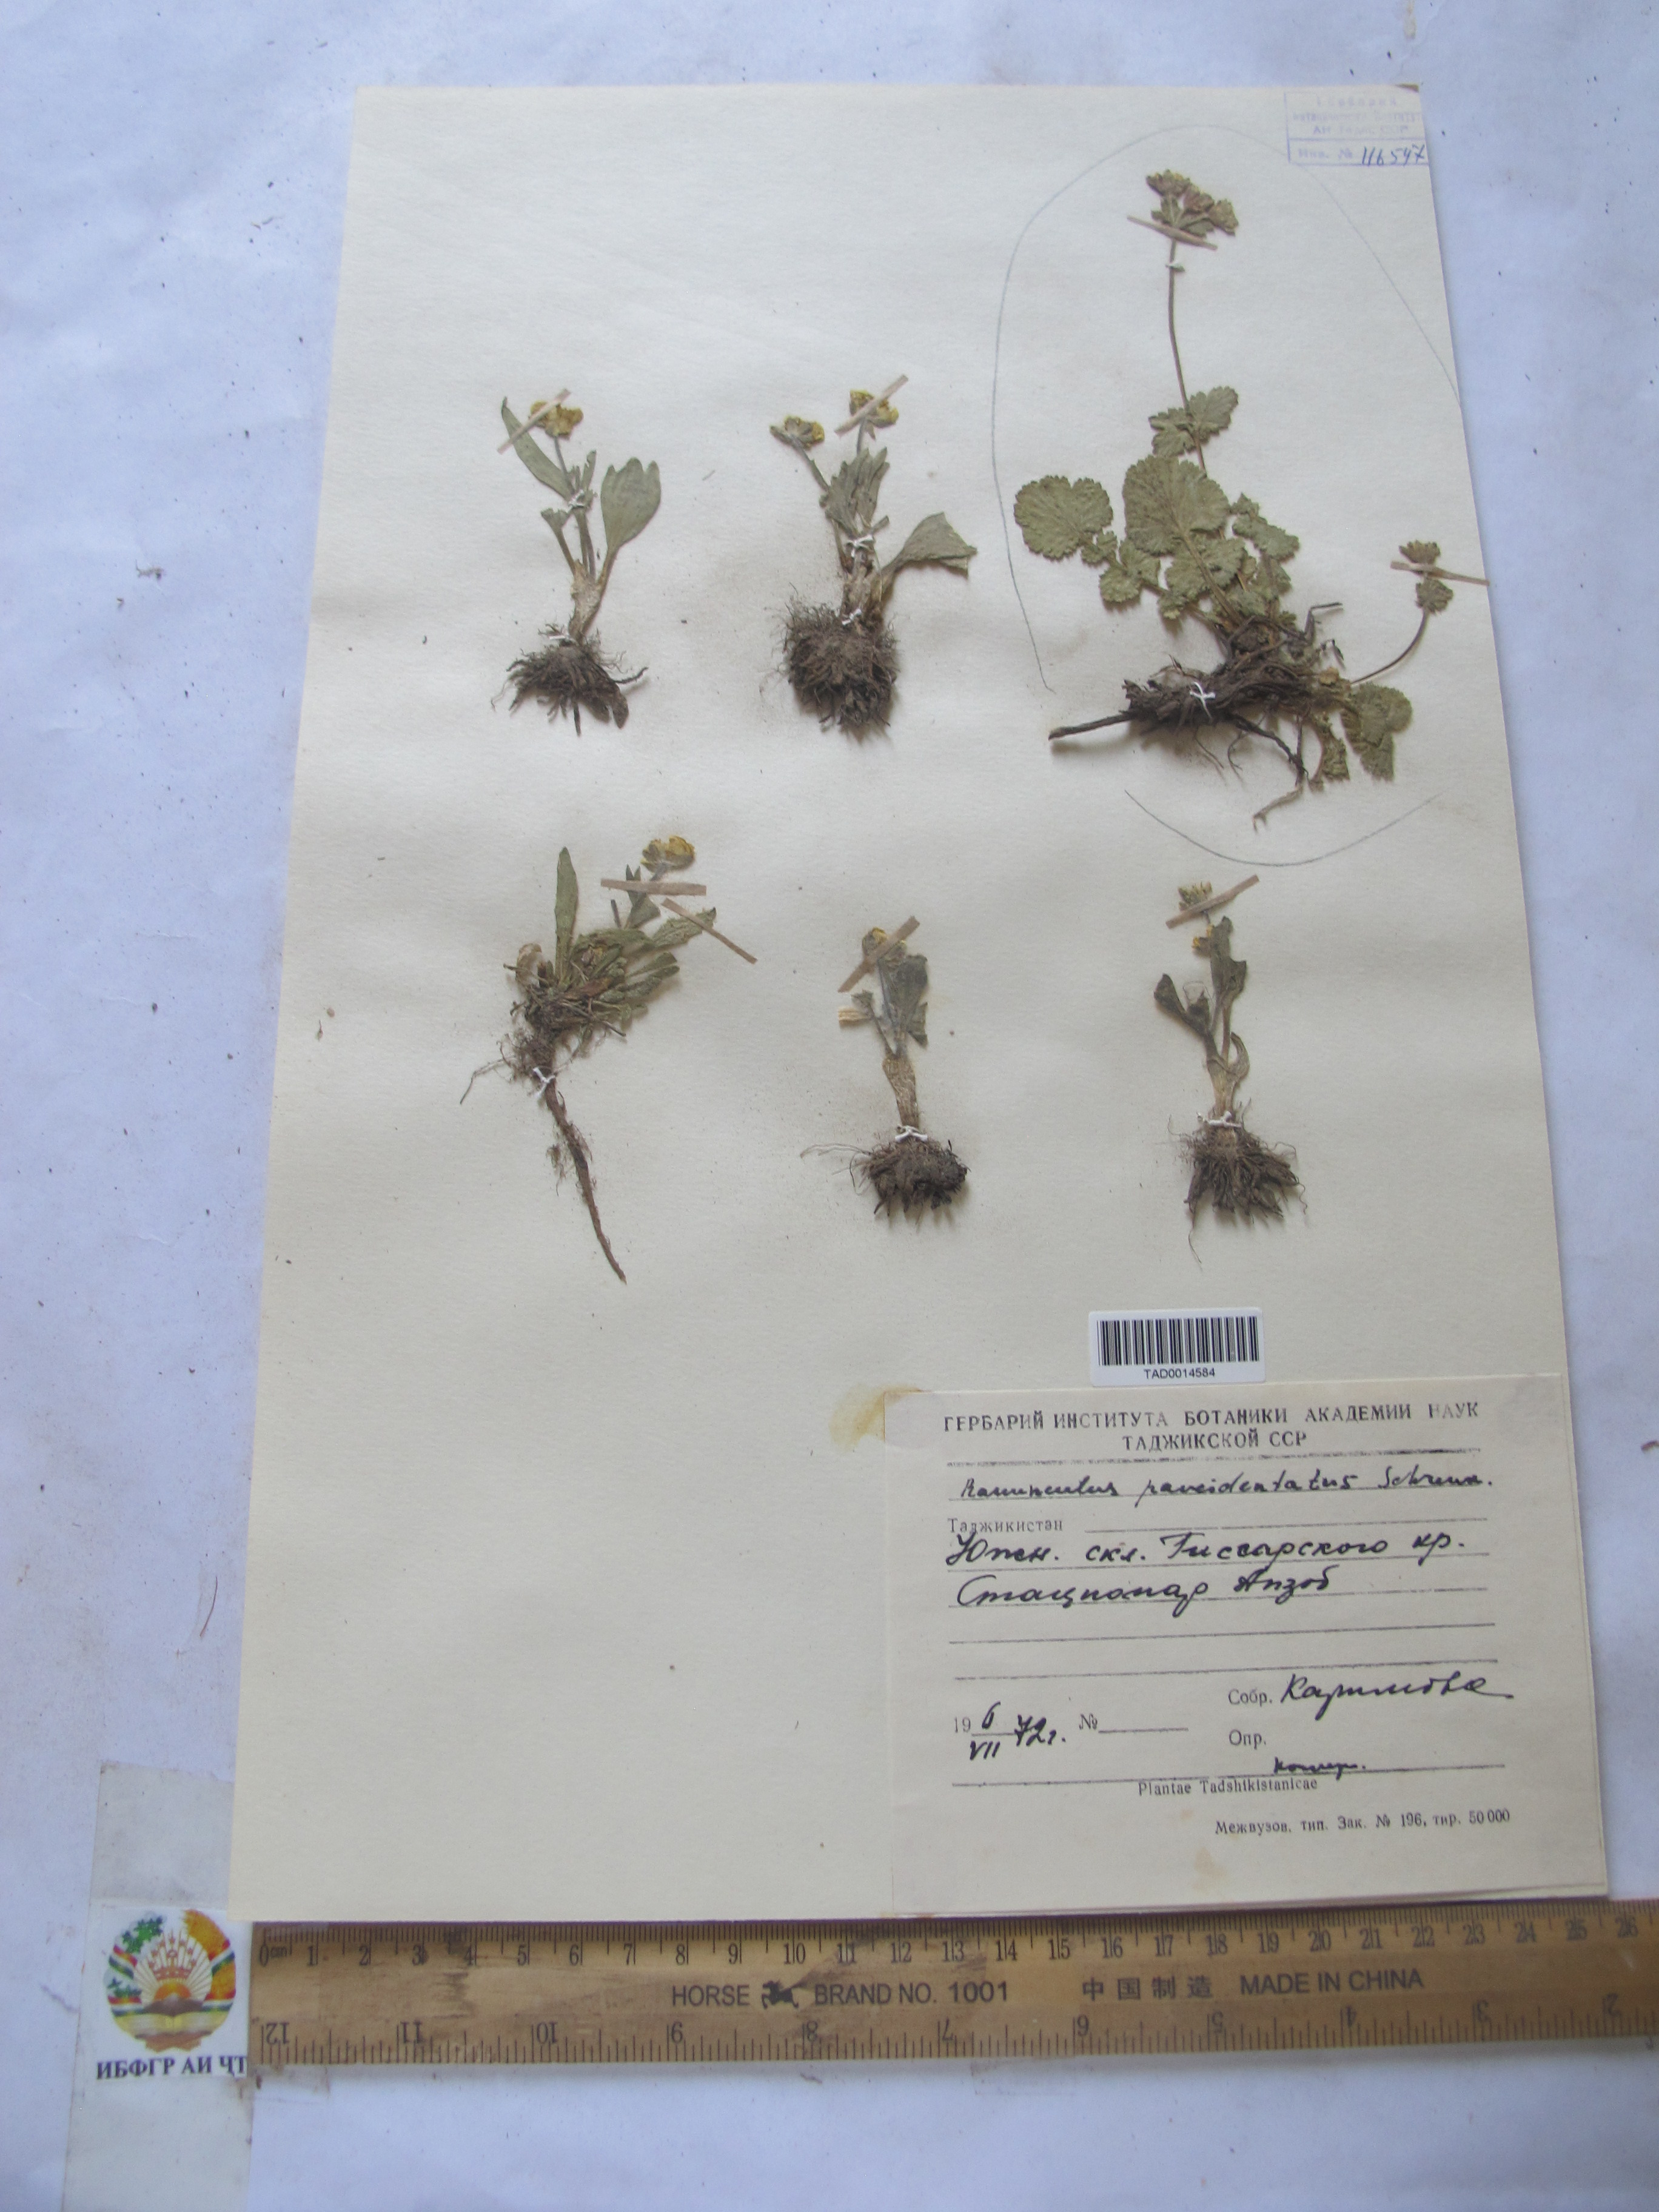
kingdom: Plantae
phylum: Tracheophyta
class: Magnoliopsida
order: Ranunculales
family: Ranunculaceae
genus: Ranunculus
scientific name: Ranunculus paucidentatus
